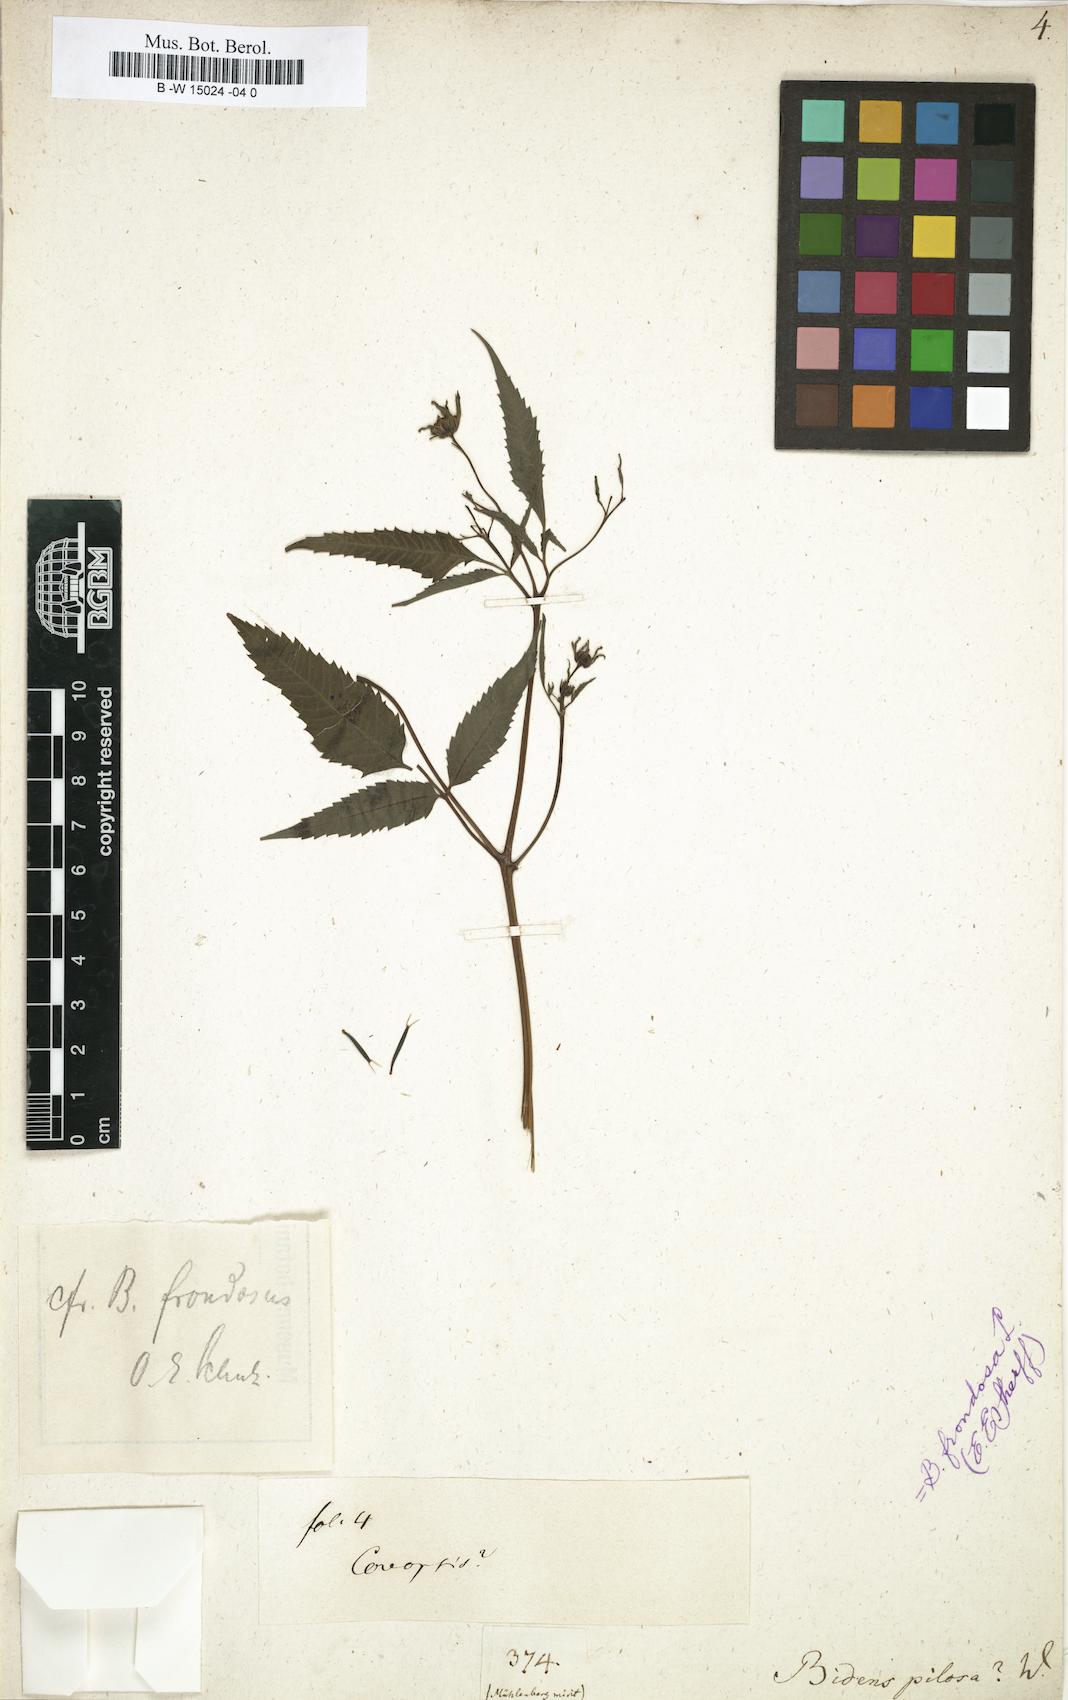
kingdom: Plantae
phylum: Tracheophyta
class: Magnoliopsida
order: Asterales
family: Asteraceae
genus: Bidens
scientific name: Bidens pilosa
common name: Black-jack
